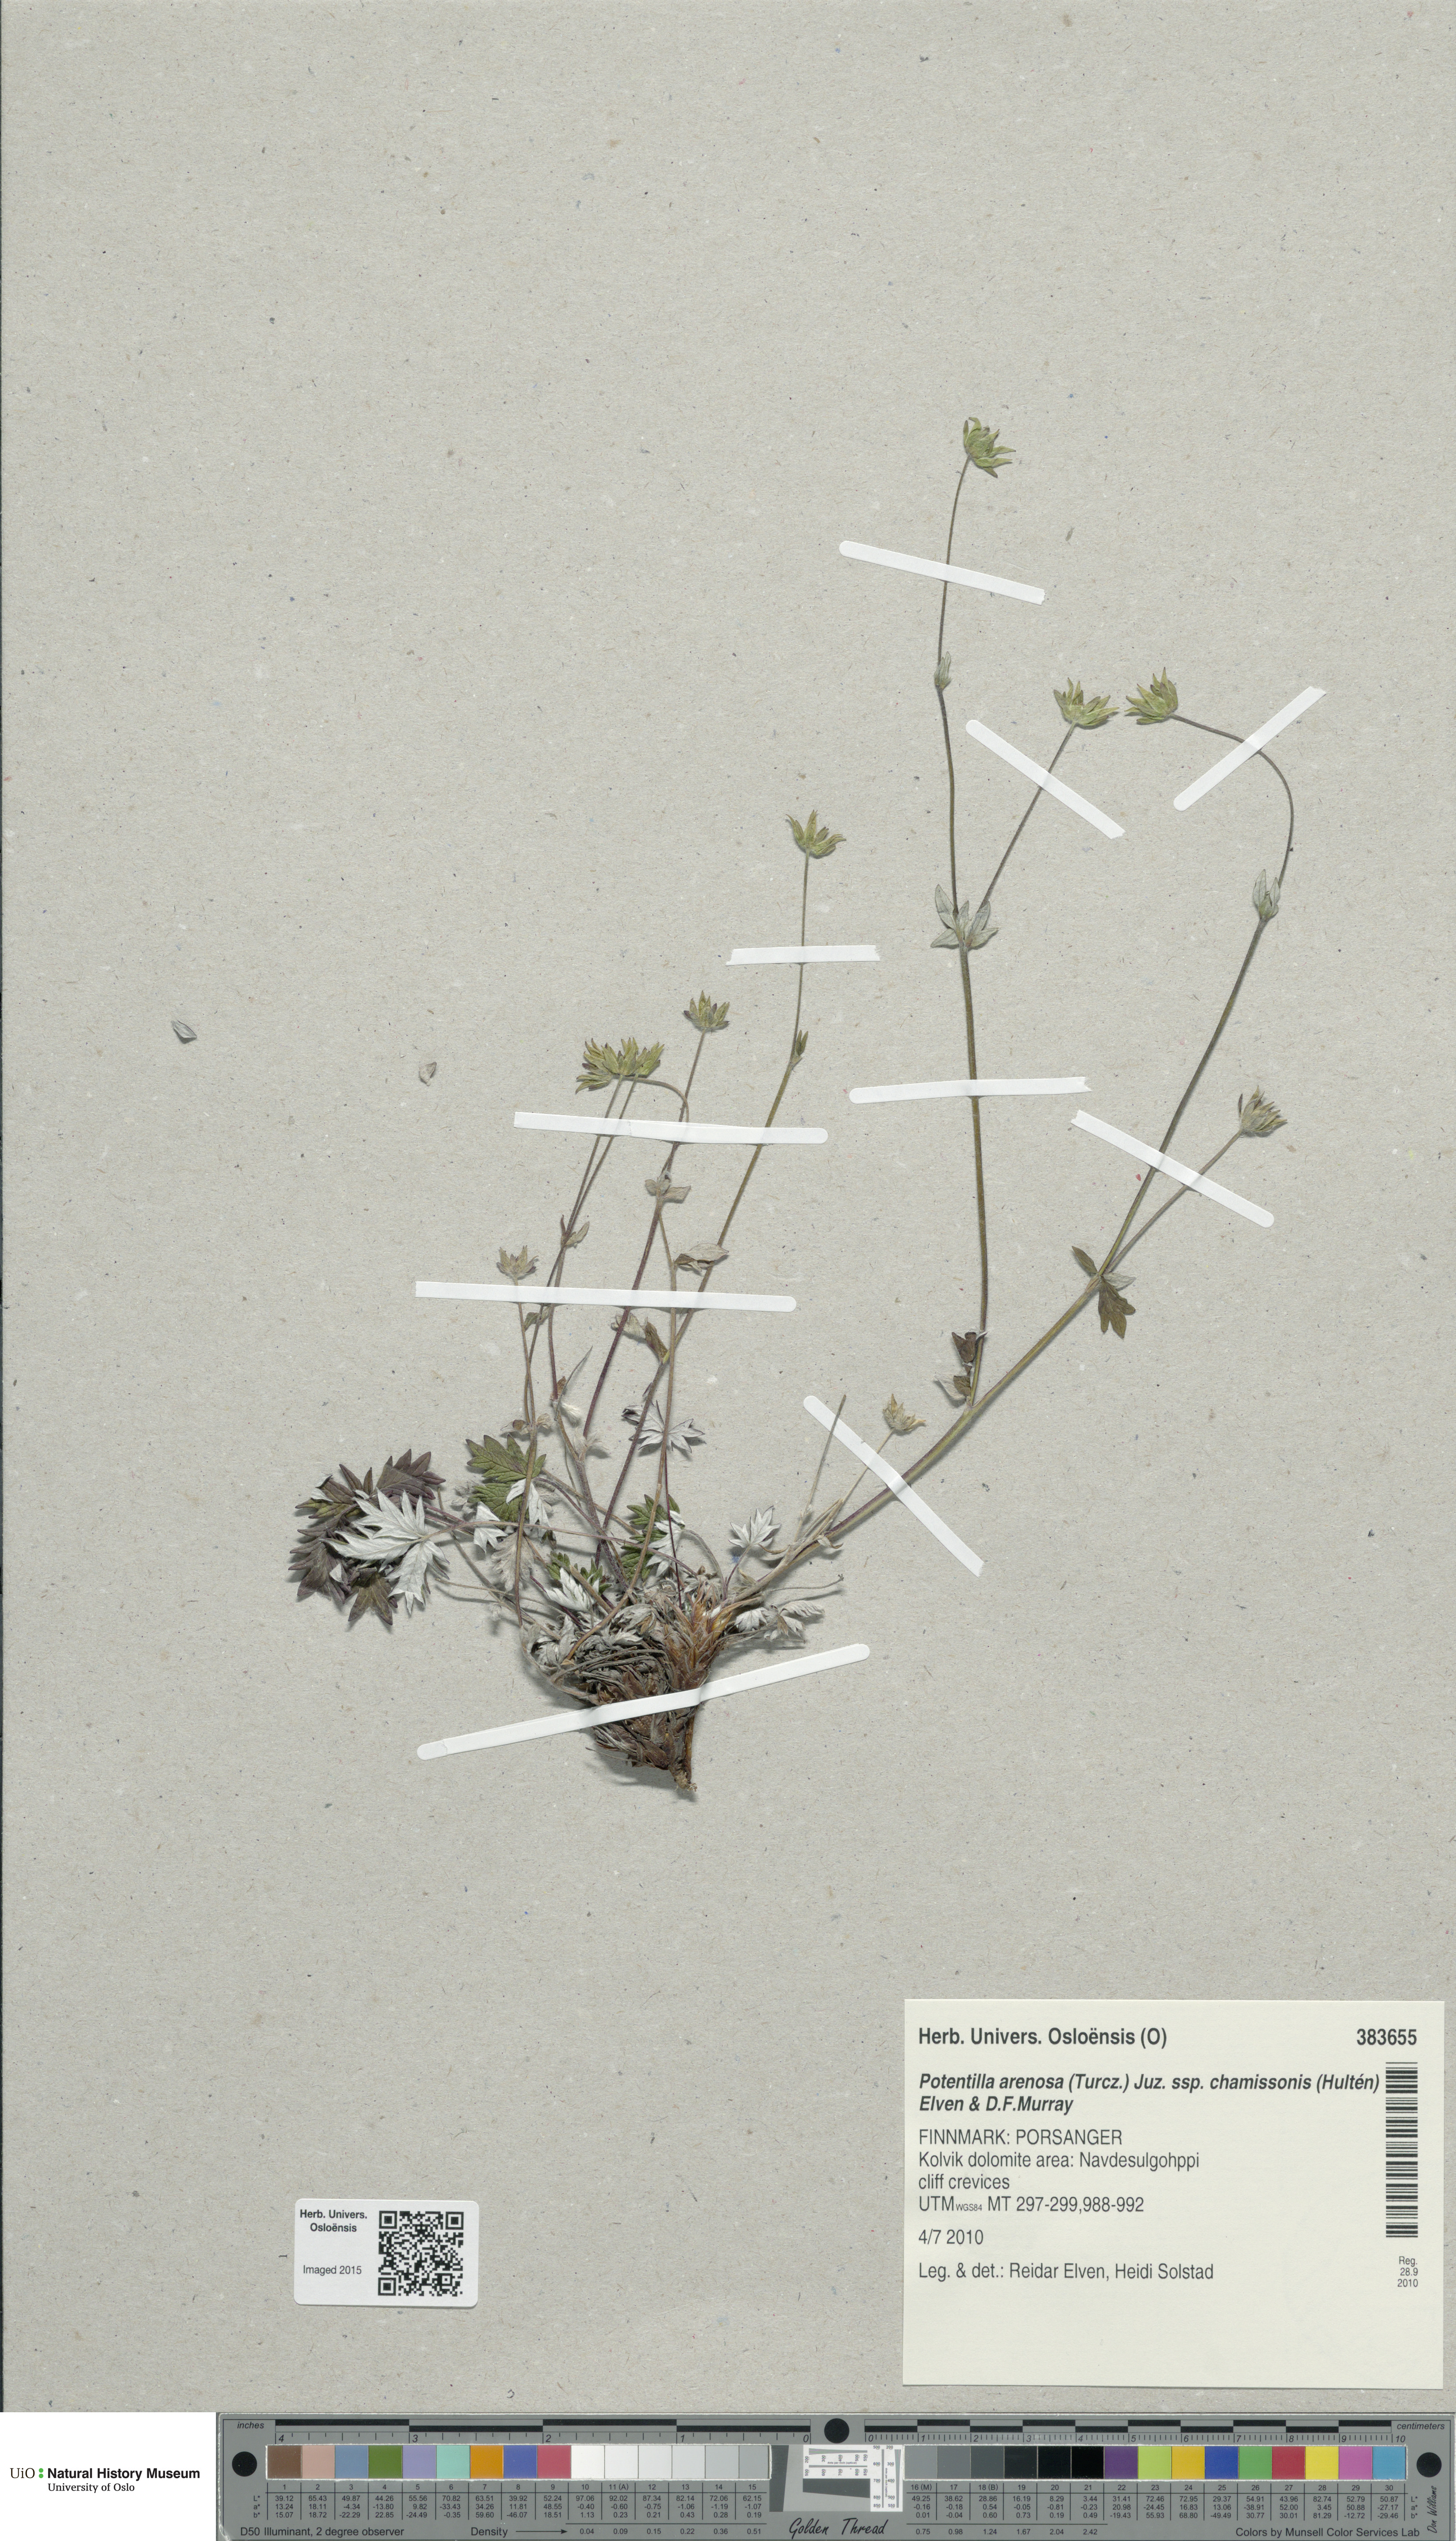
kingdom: Plantae
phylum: Tracheophyta
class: Magnoliopsida
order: Rosales
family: Rosaceae
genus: Potentilla
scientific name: Potentilla chamissonis
